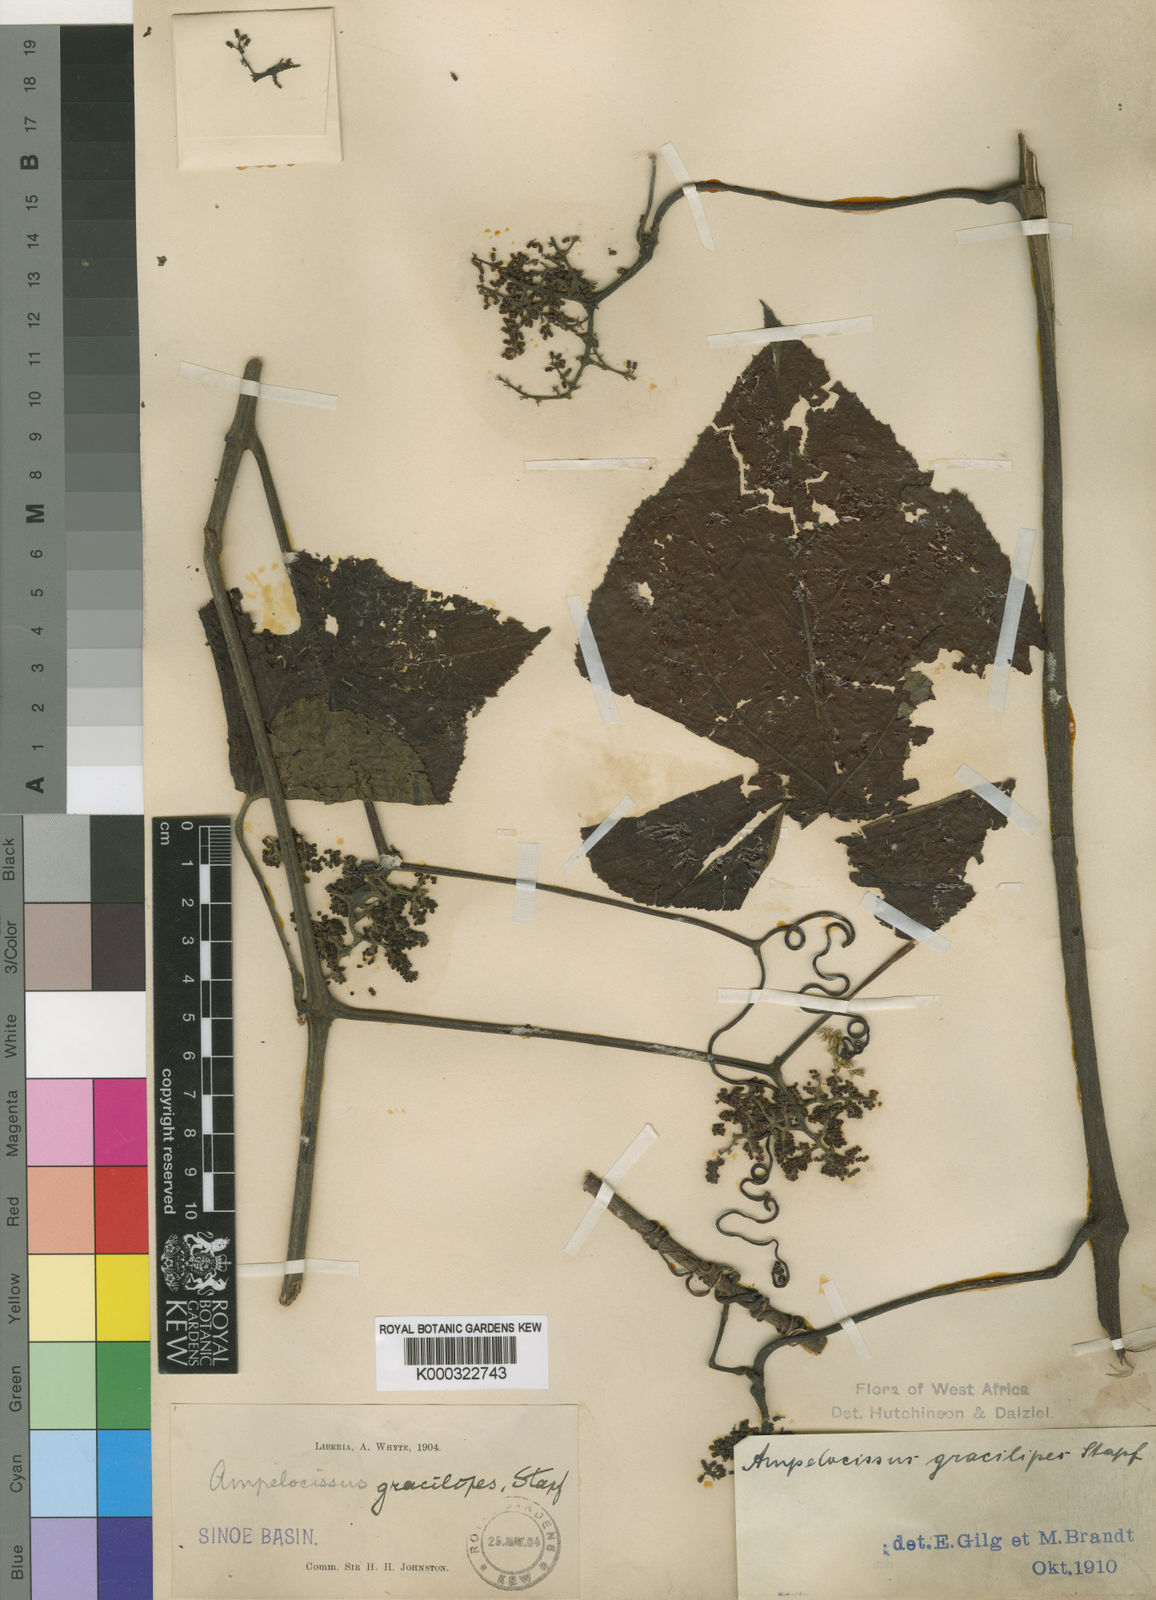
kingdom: Plantae
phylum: Tracheophyta
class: Magnoliopsida
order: Vitales
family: Vitaceae
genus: Ampelocissus
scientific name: Ampelocissus gracilipes
